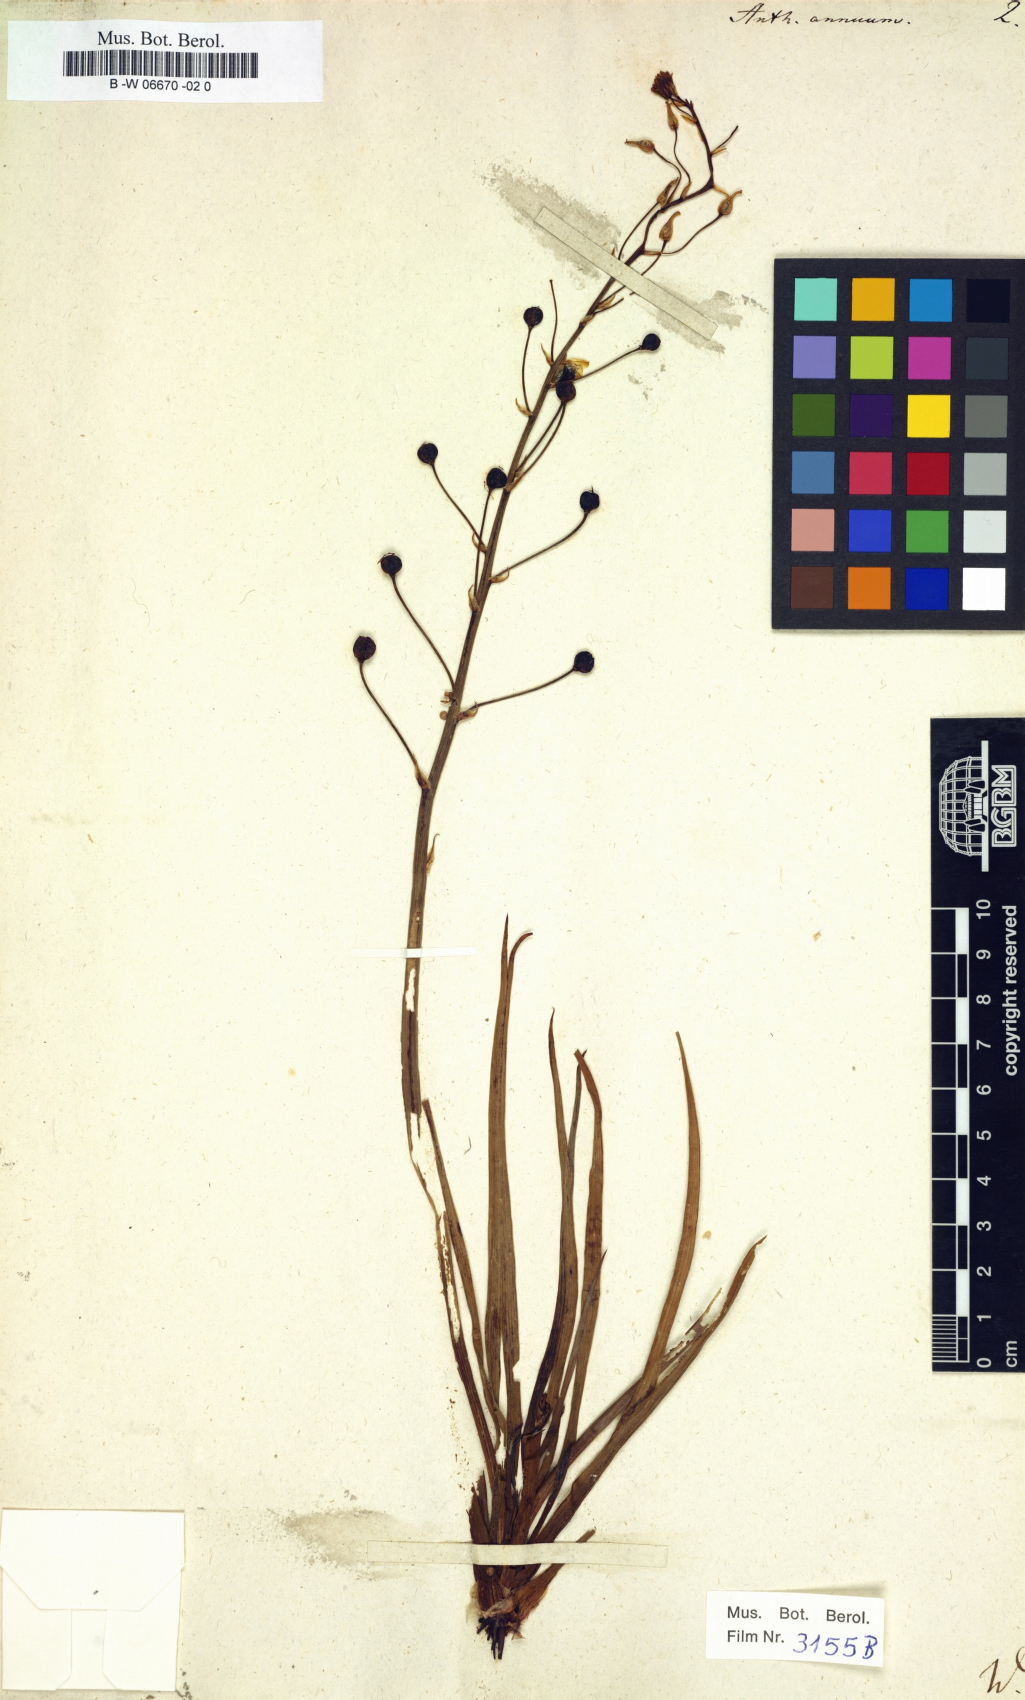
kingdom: Plantae
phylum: Tracheophyta
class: Liliopsida
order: Asparagales
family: Asphodelaceae
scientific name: Asphodelaceae
